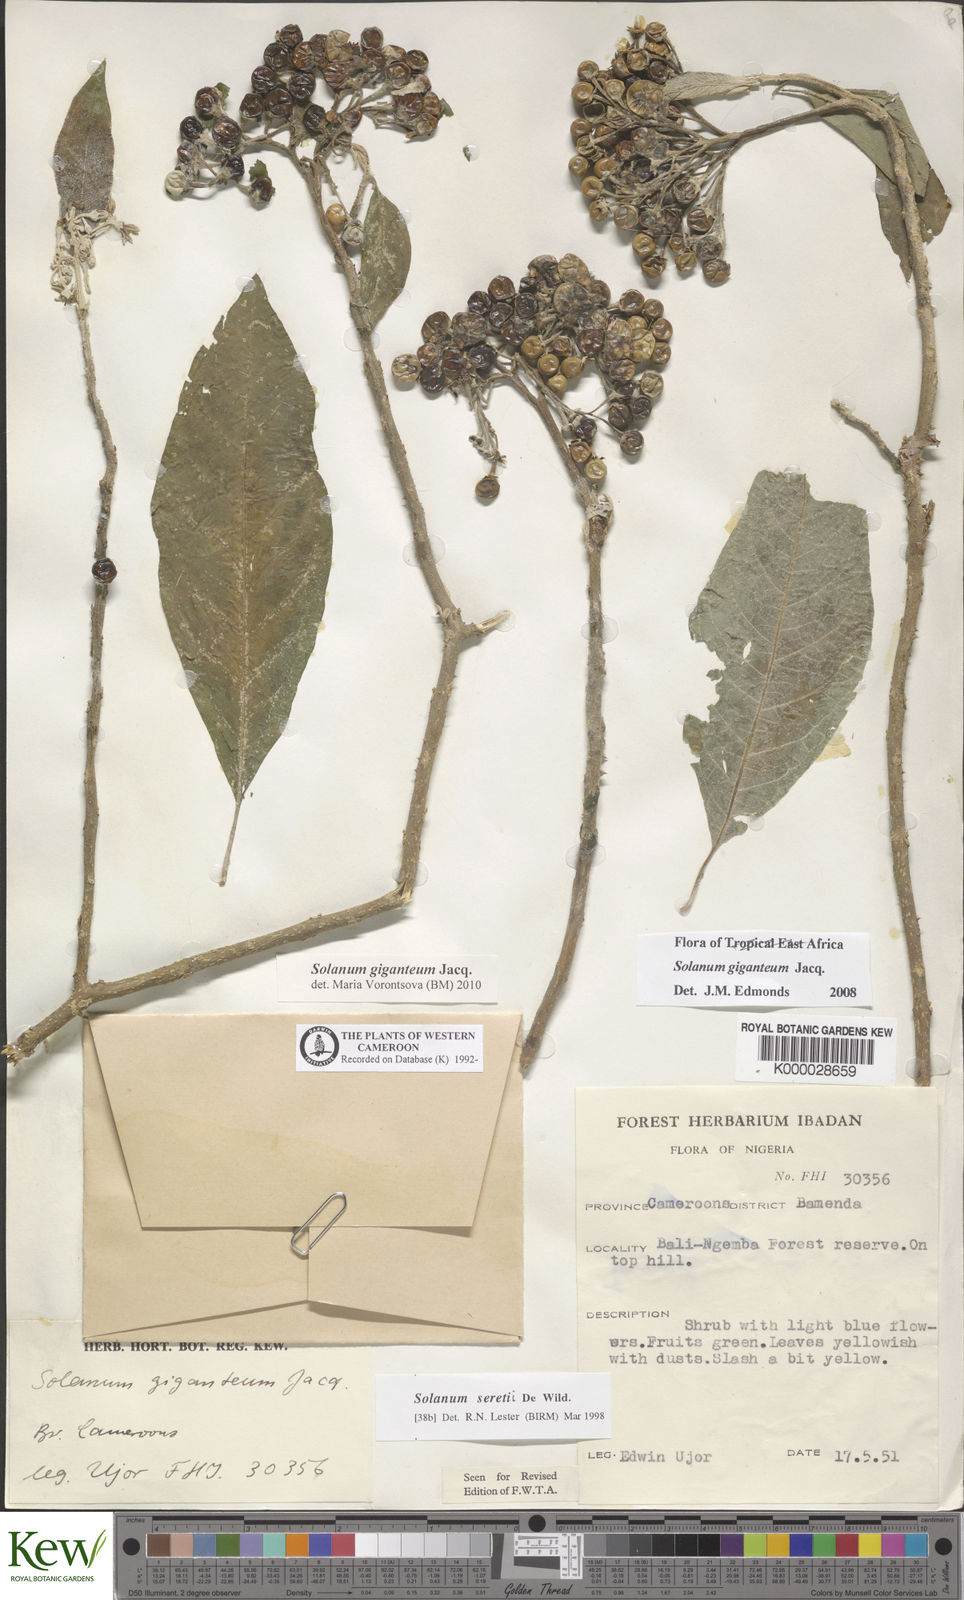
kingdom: Plantae
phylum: Tracheophyta
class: Magnoliopsida
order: Solanales
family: Solanaceae
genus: Solanum
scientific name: Solanum giganteum
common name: Healing-leaf-tree
